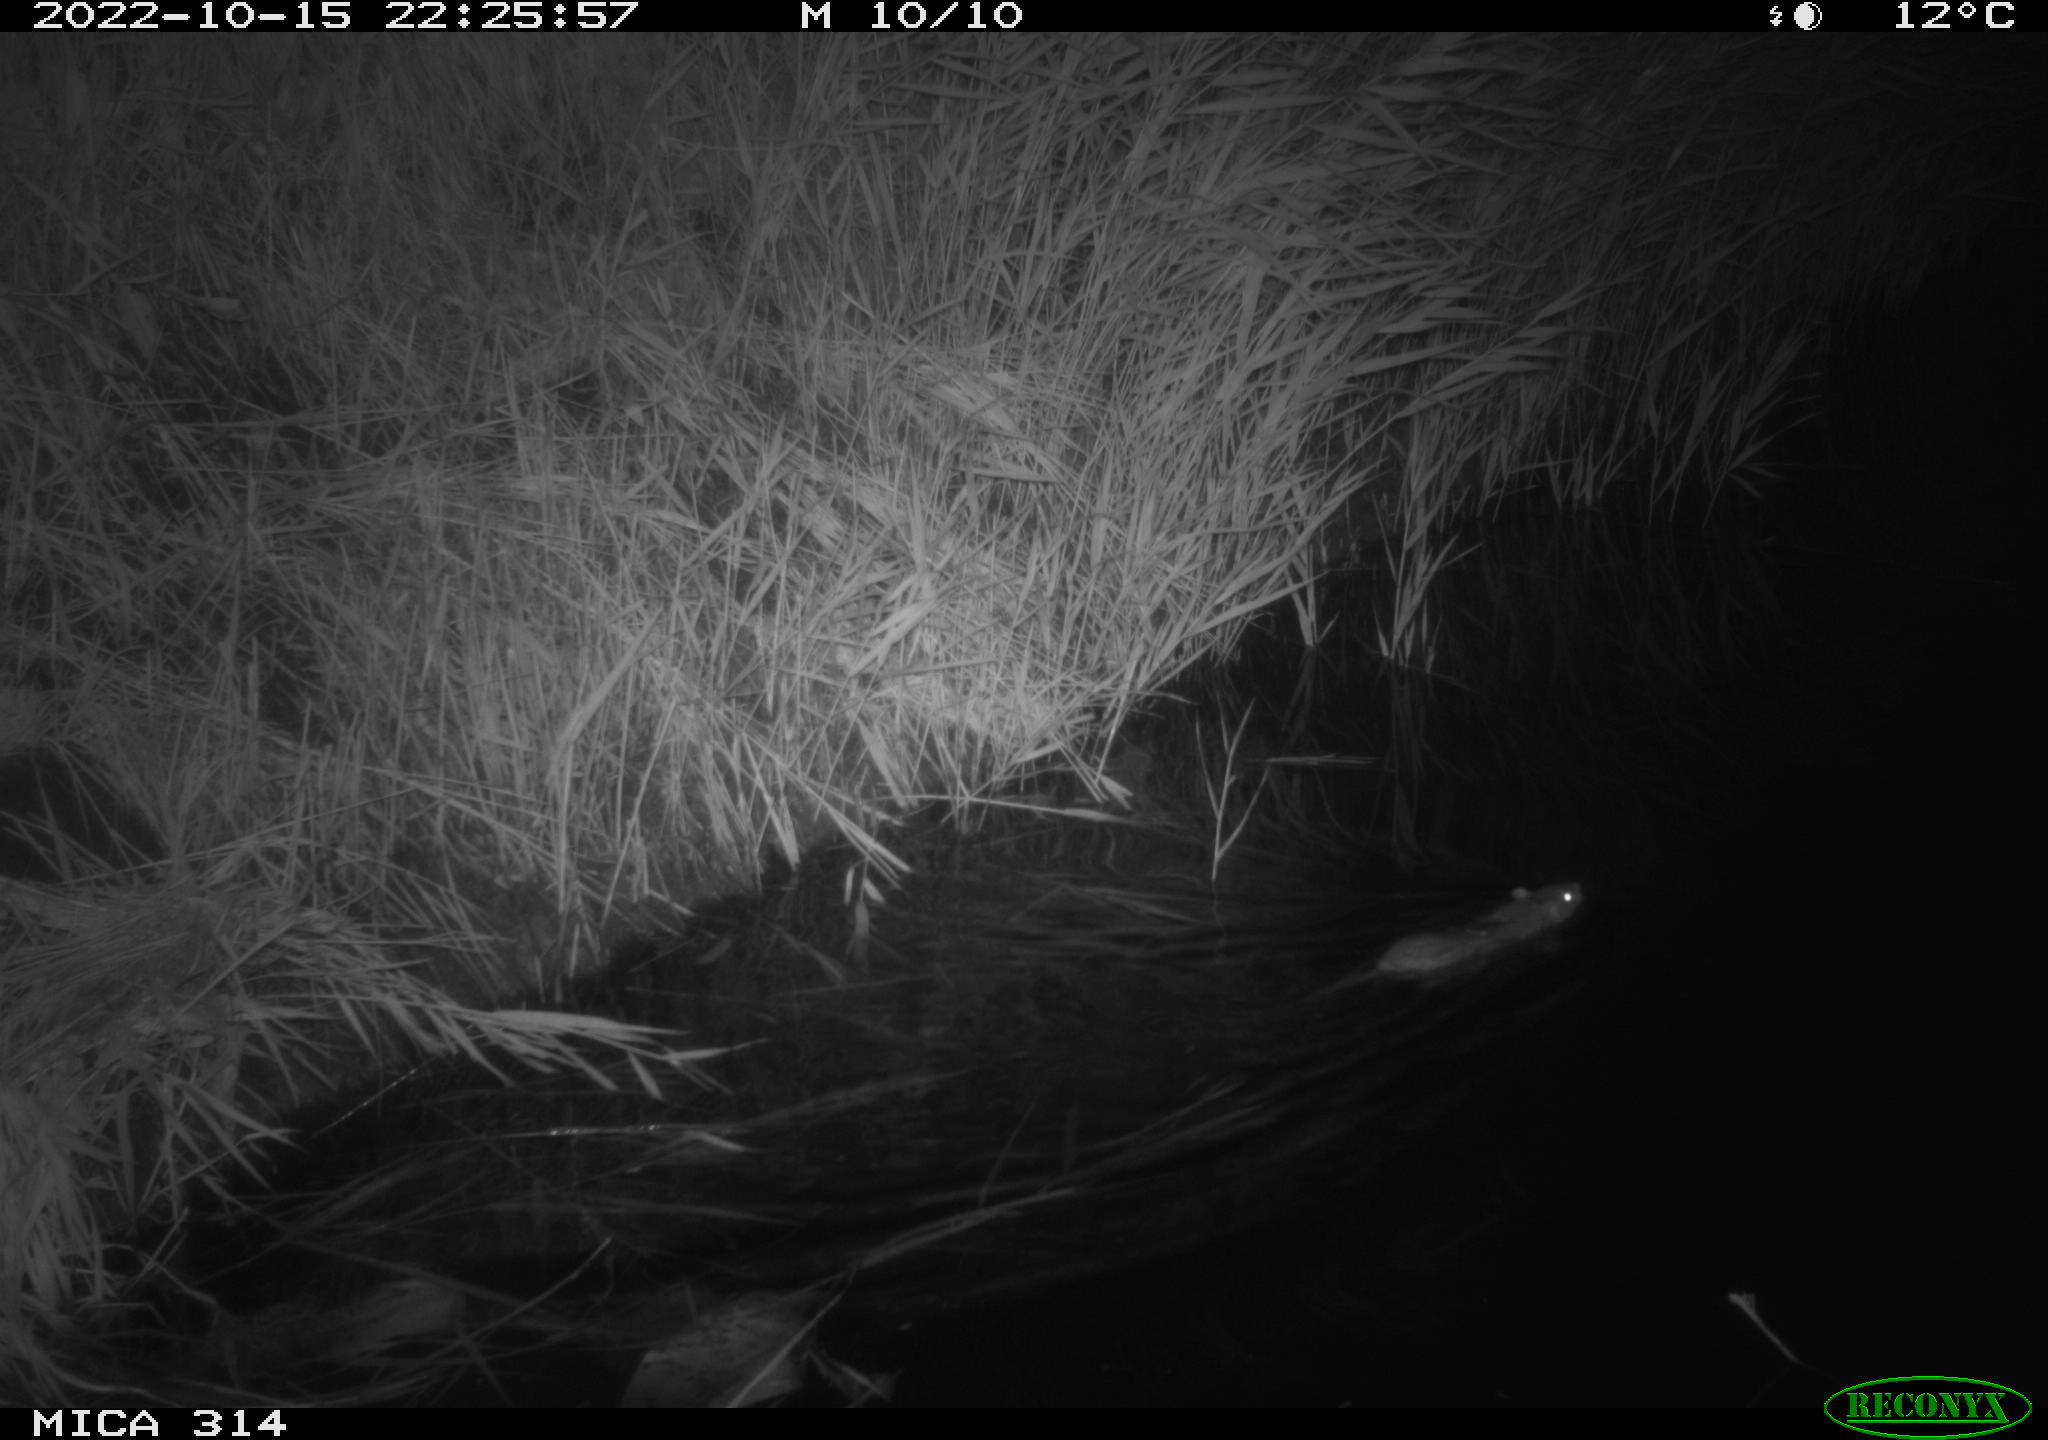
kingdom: Animalia
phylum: Chordata
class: Mammalia
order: Rodentia
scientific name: Rodentia
